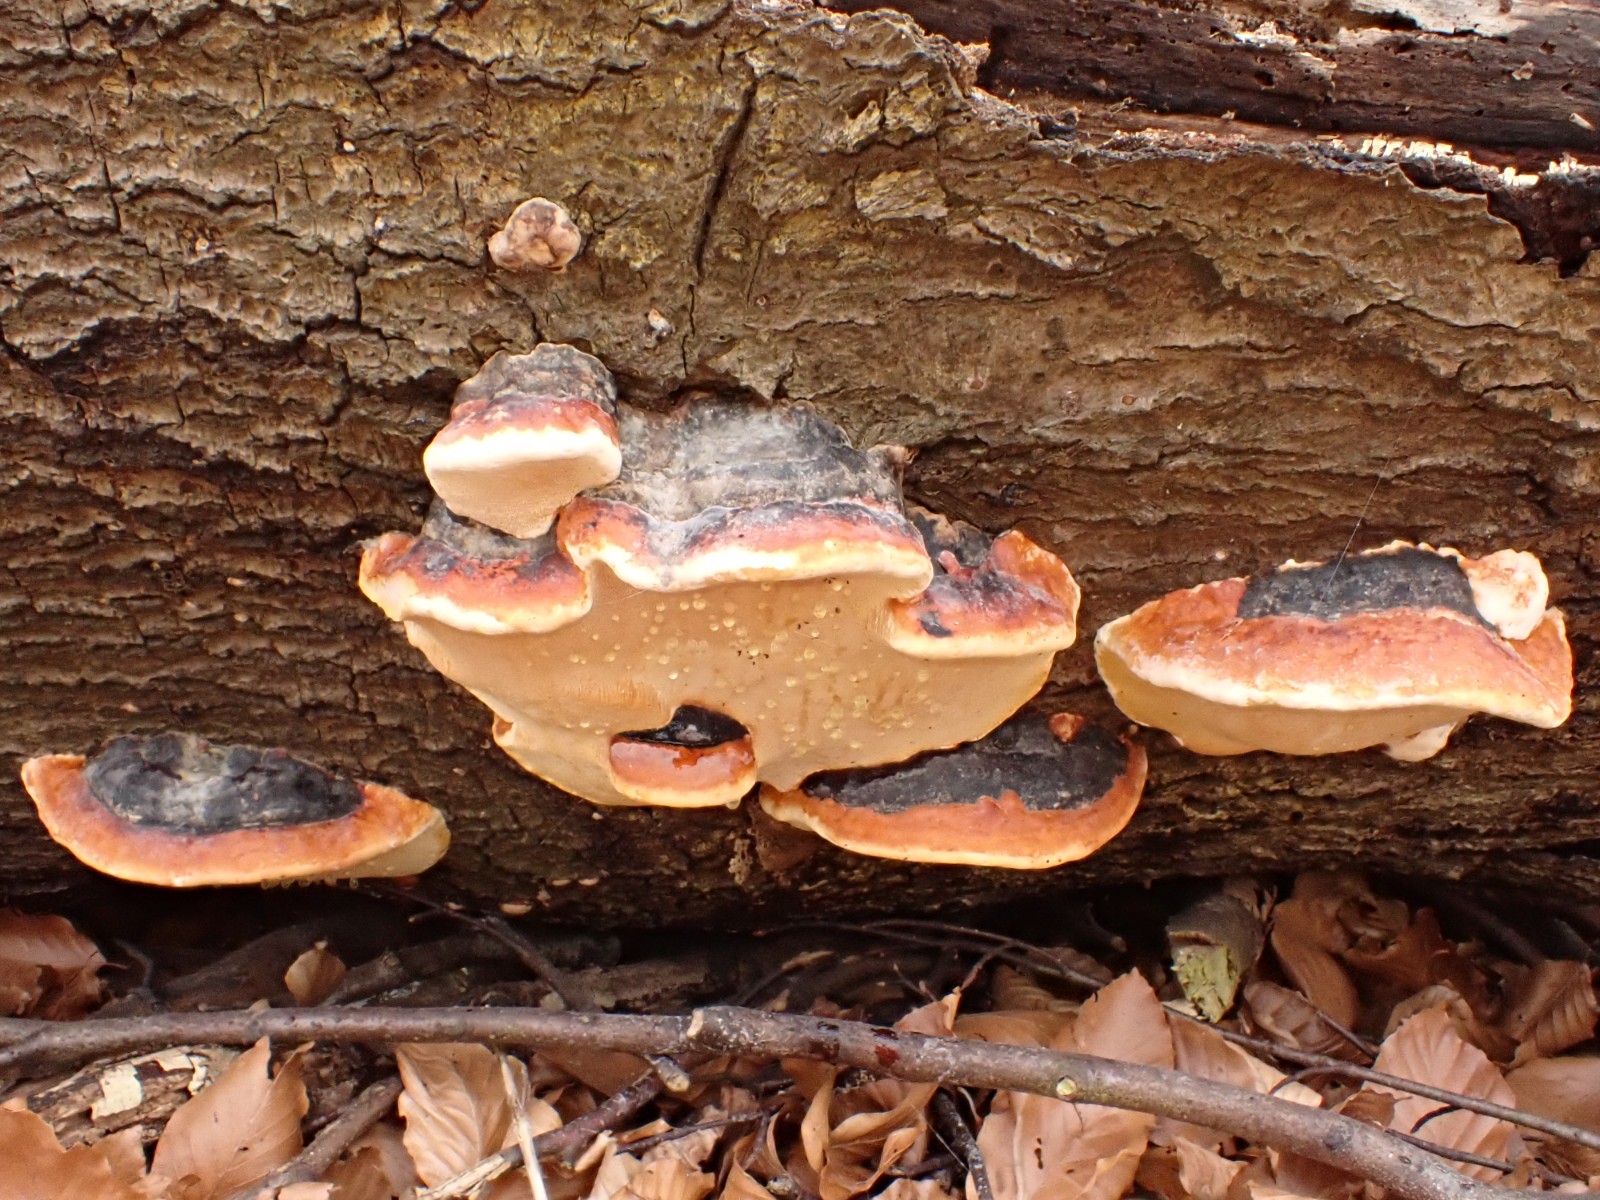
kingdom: Fungi
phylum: Basidiomycota
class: Agaricomycetes
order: Polyporales
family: Fomitopsidaceae
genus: Fomitopsis
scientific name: Fomitopsis pinicola
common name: randbæltet hovporesvamp
